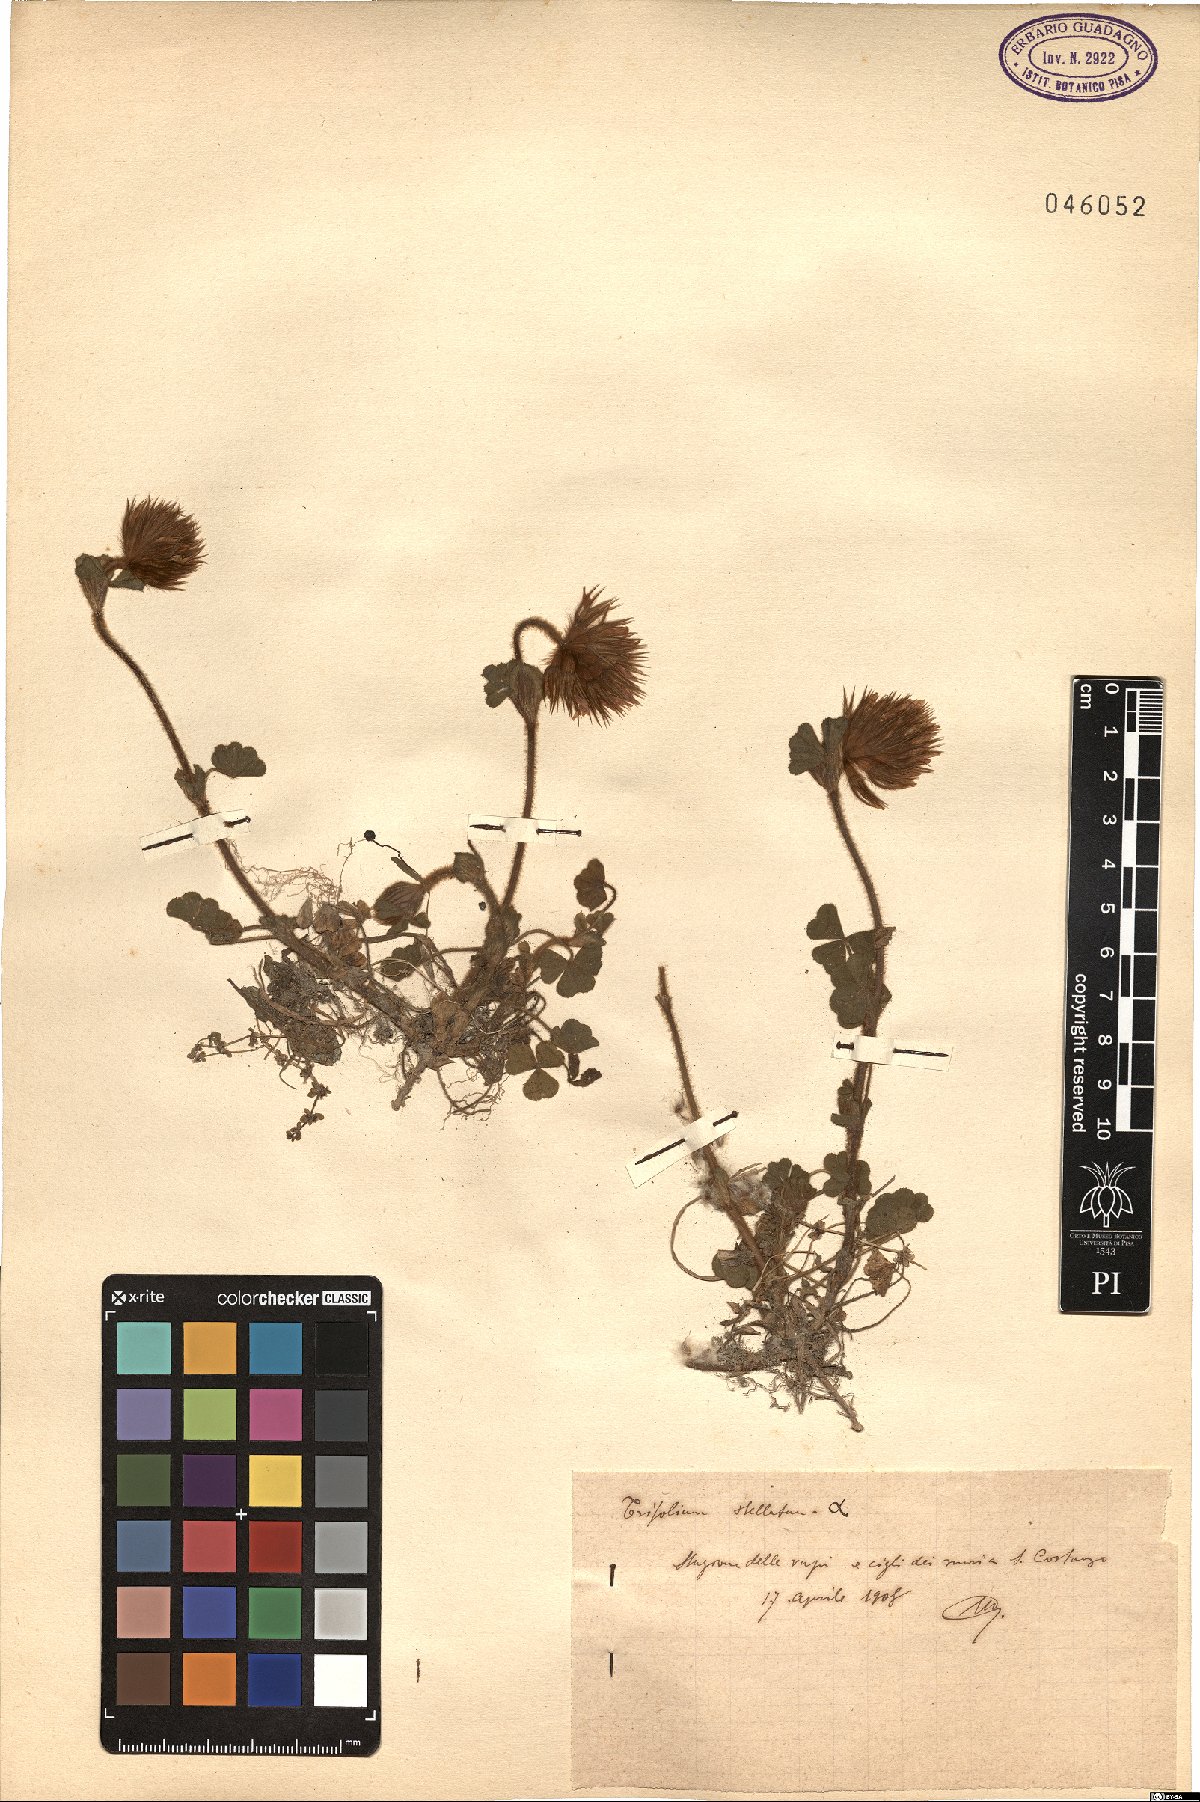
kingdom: Plantae
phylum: Tracheophyta
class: Magnoliopsida
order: Fabales
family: Fabaceae
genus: Trifolium
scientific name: Trifolium stellatum
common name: Starry clover
